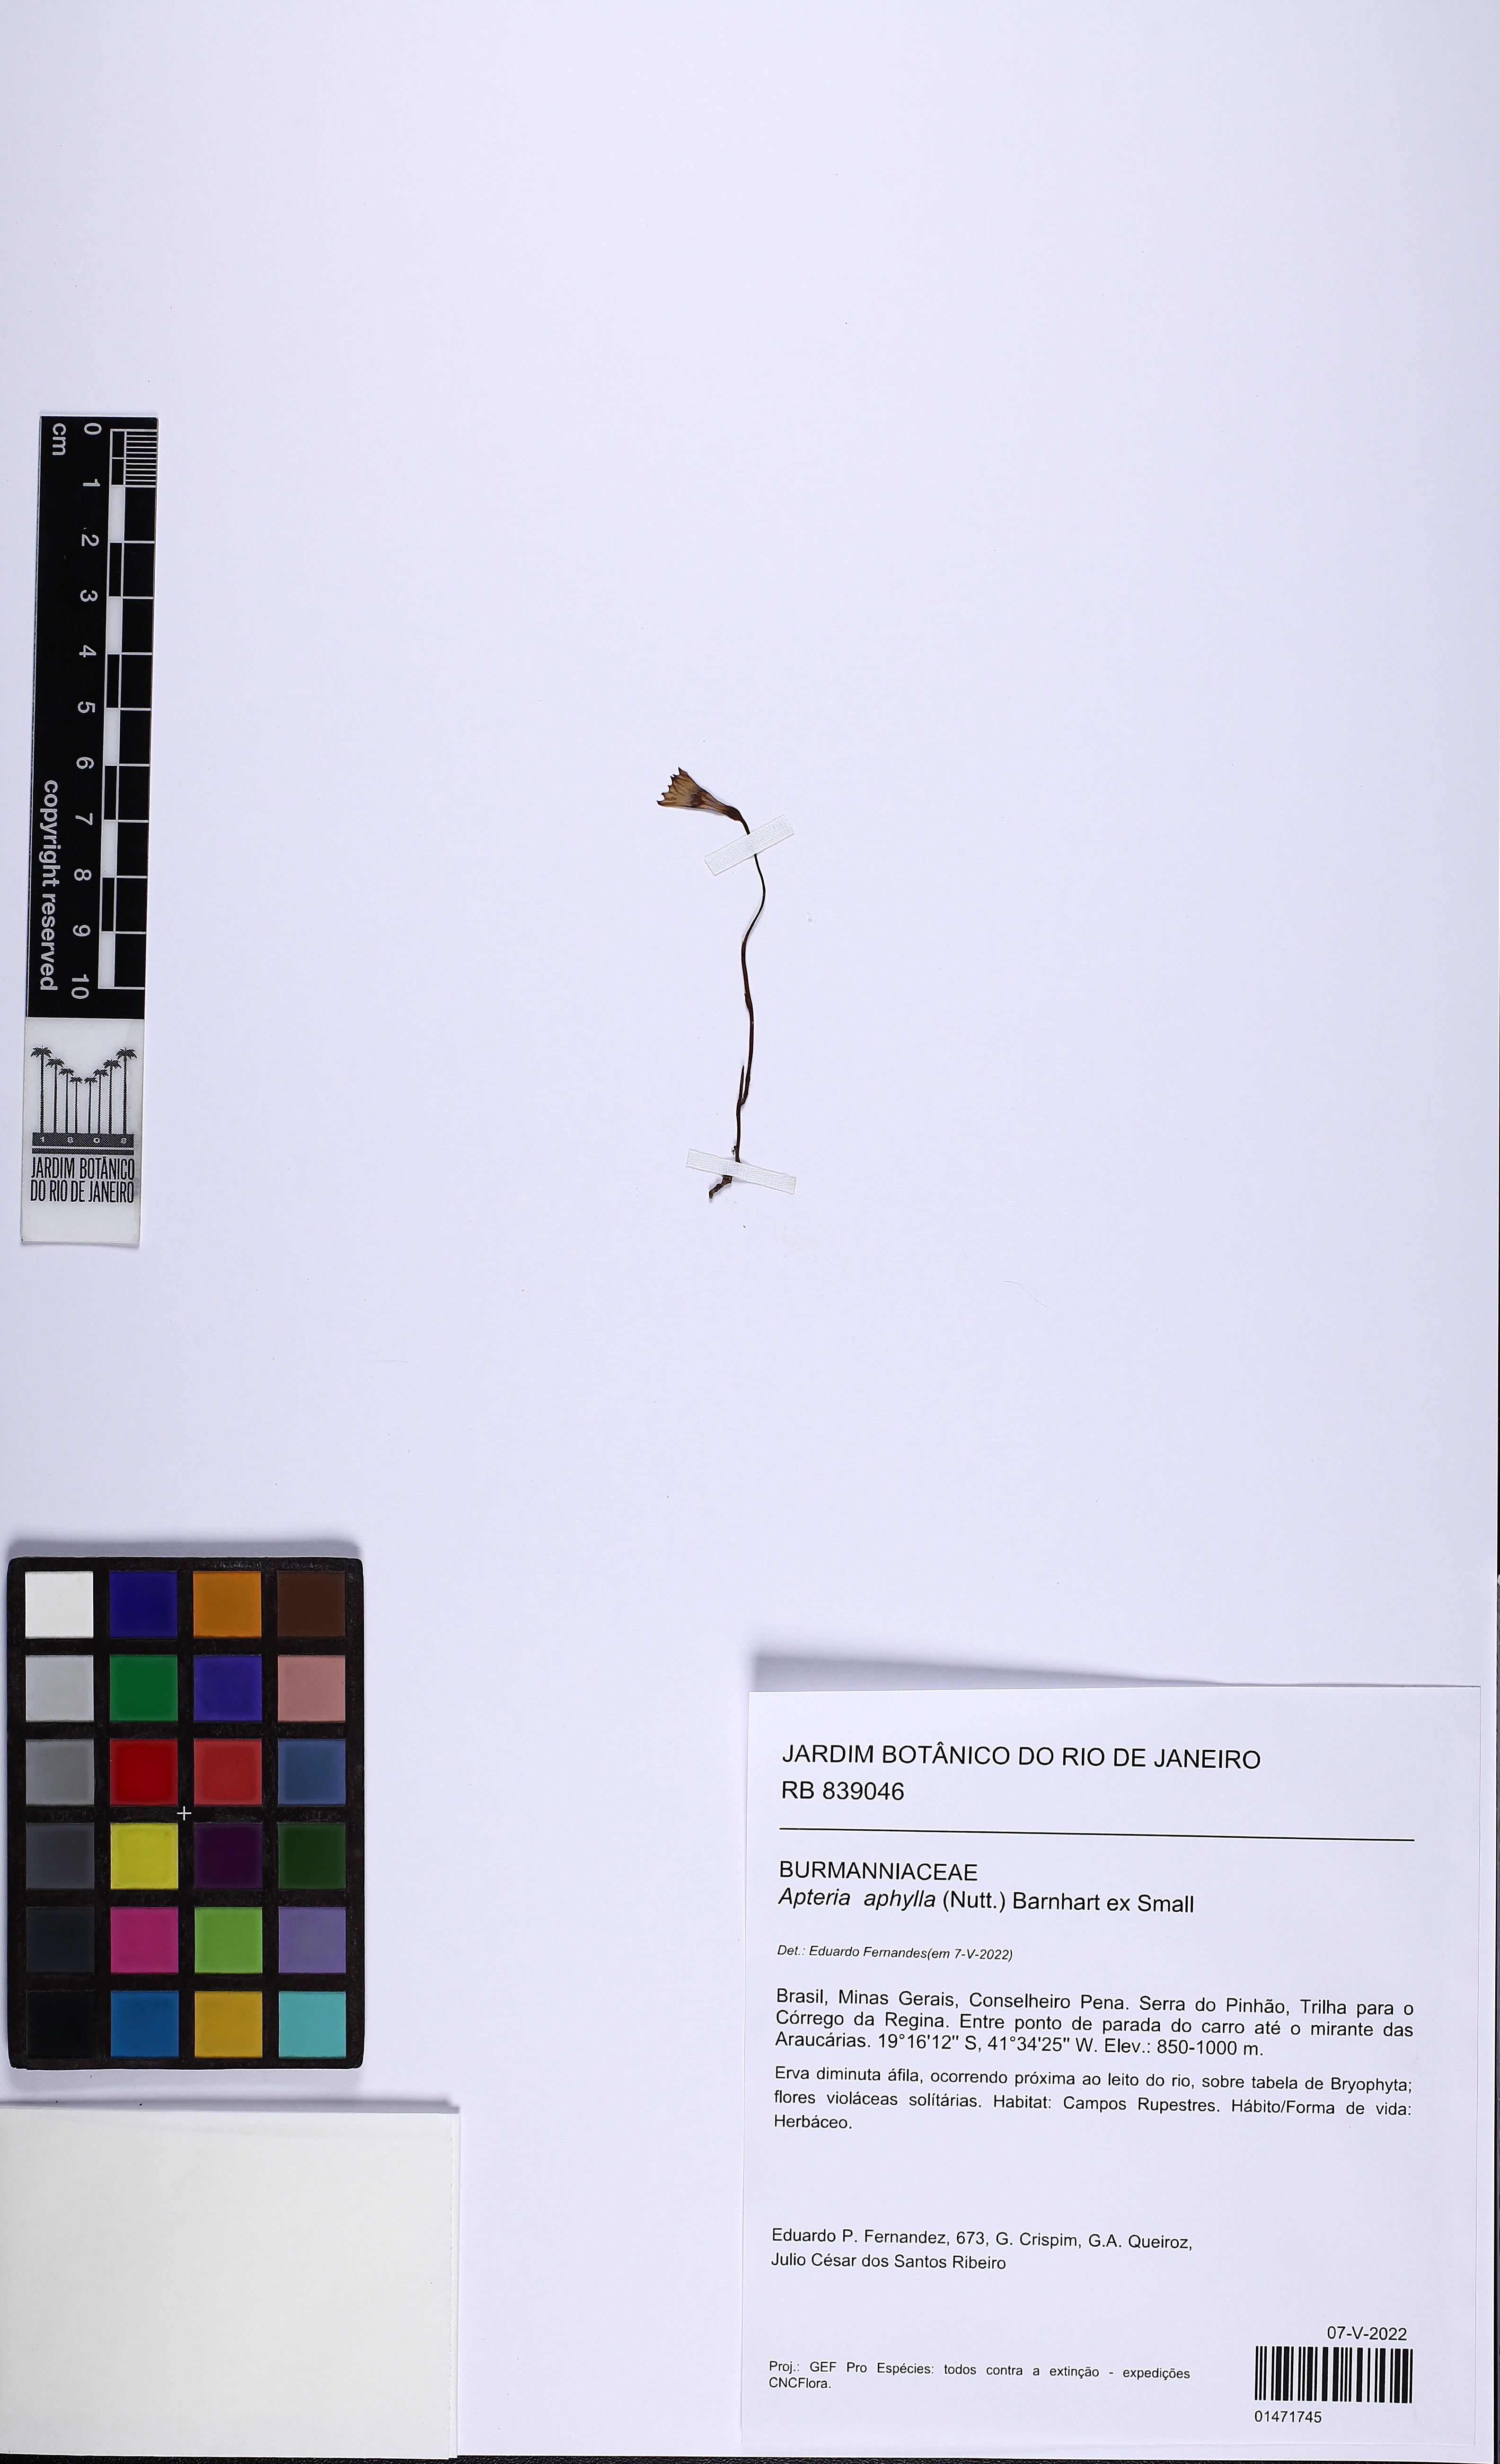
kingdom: Plantae
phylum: Tracheophyta
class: Liliopsida
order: Dioscoreales
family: Burmanniaceae
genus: Apteria
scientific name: Apteria aphylla
